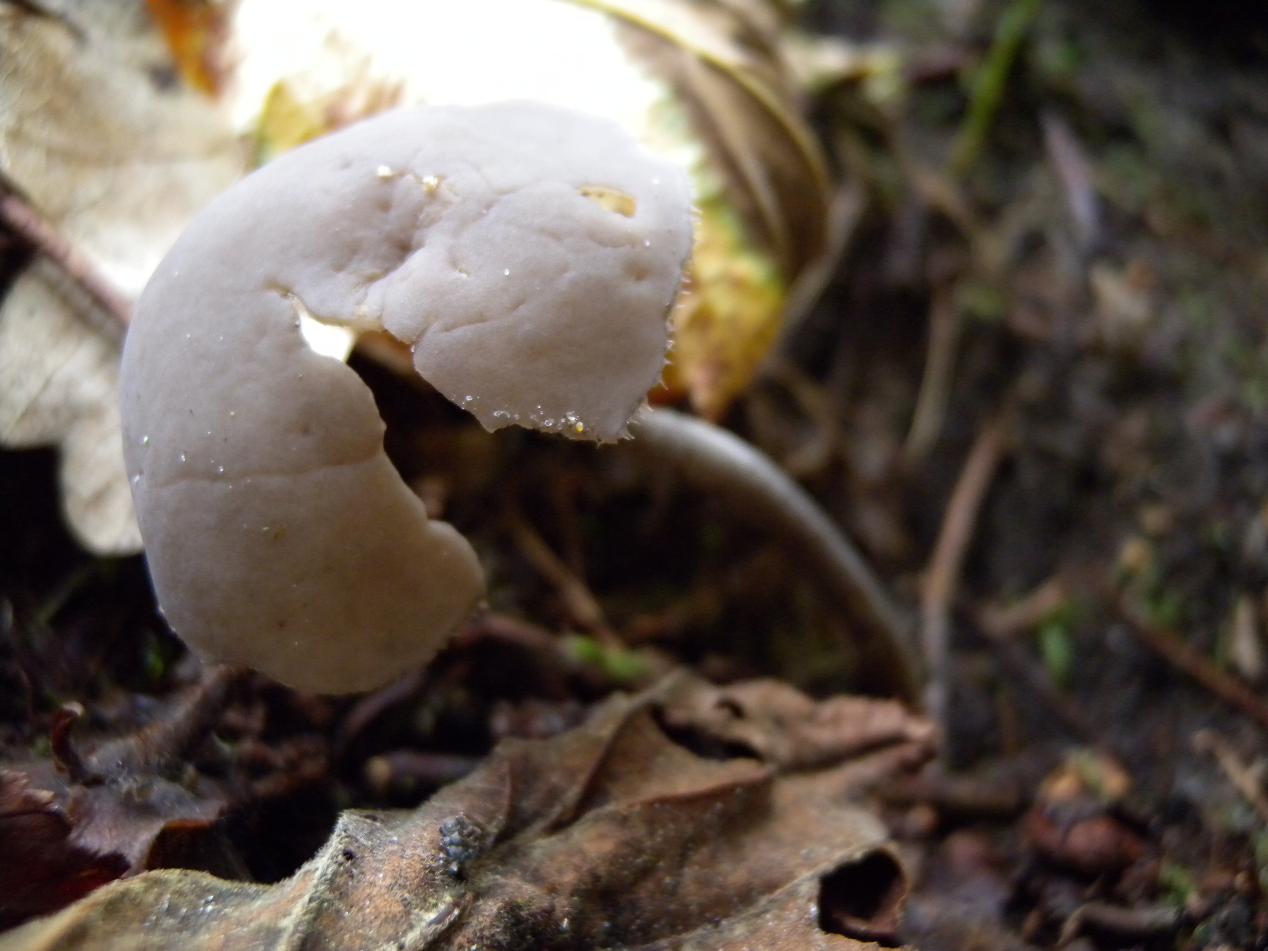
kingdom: Fungi
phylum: Ascomycota
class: Pezizomycetes
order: Pezizales
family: Helvellaceae
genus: Helvella
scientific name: Helvella macropus
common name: højstokket foldhat
